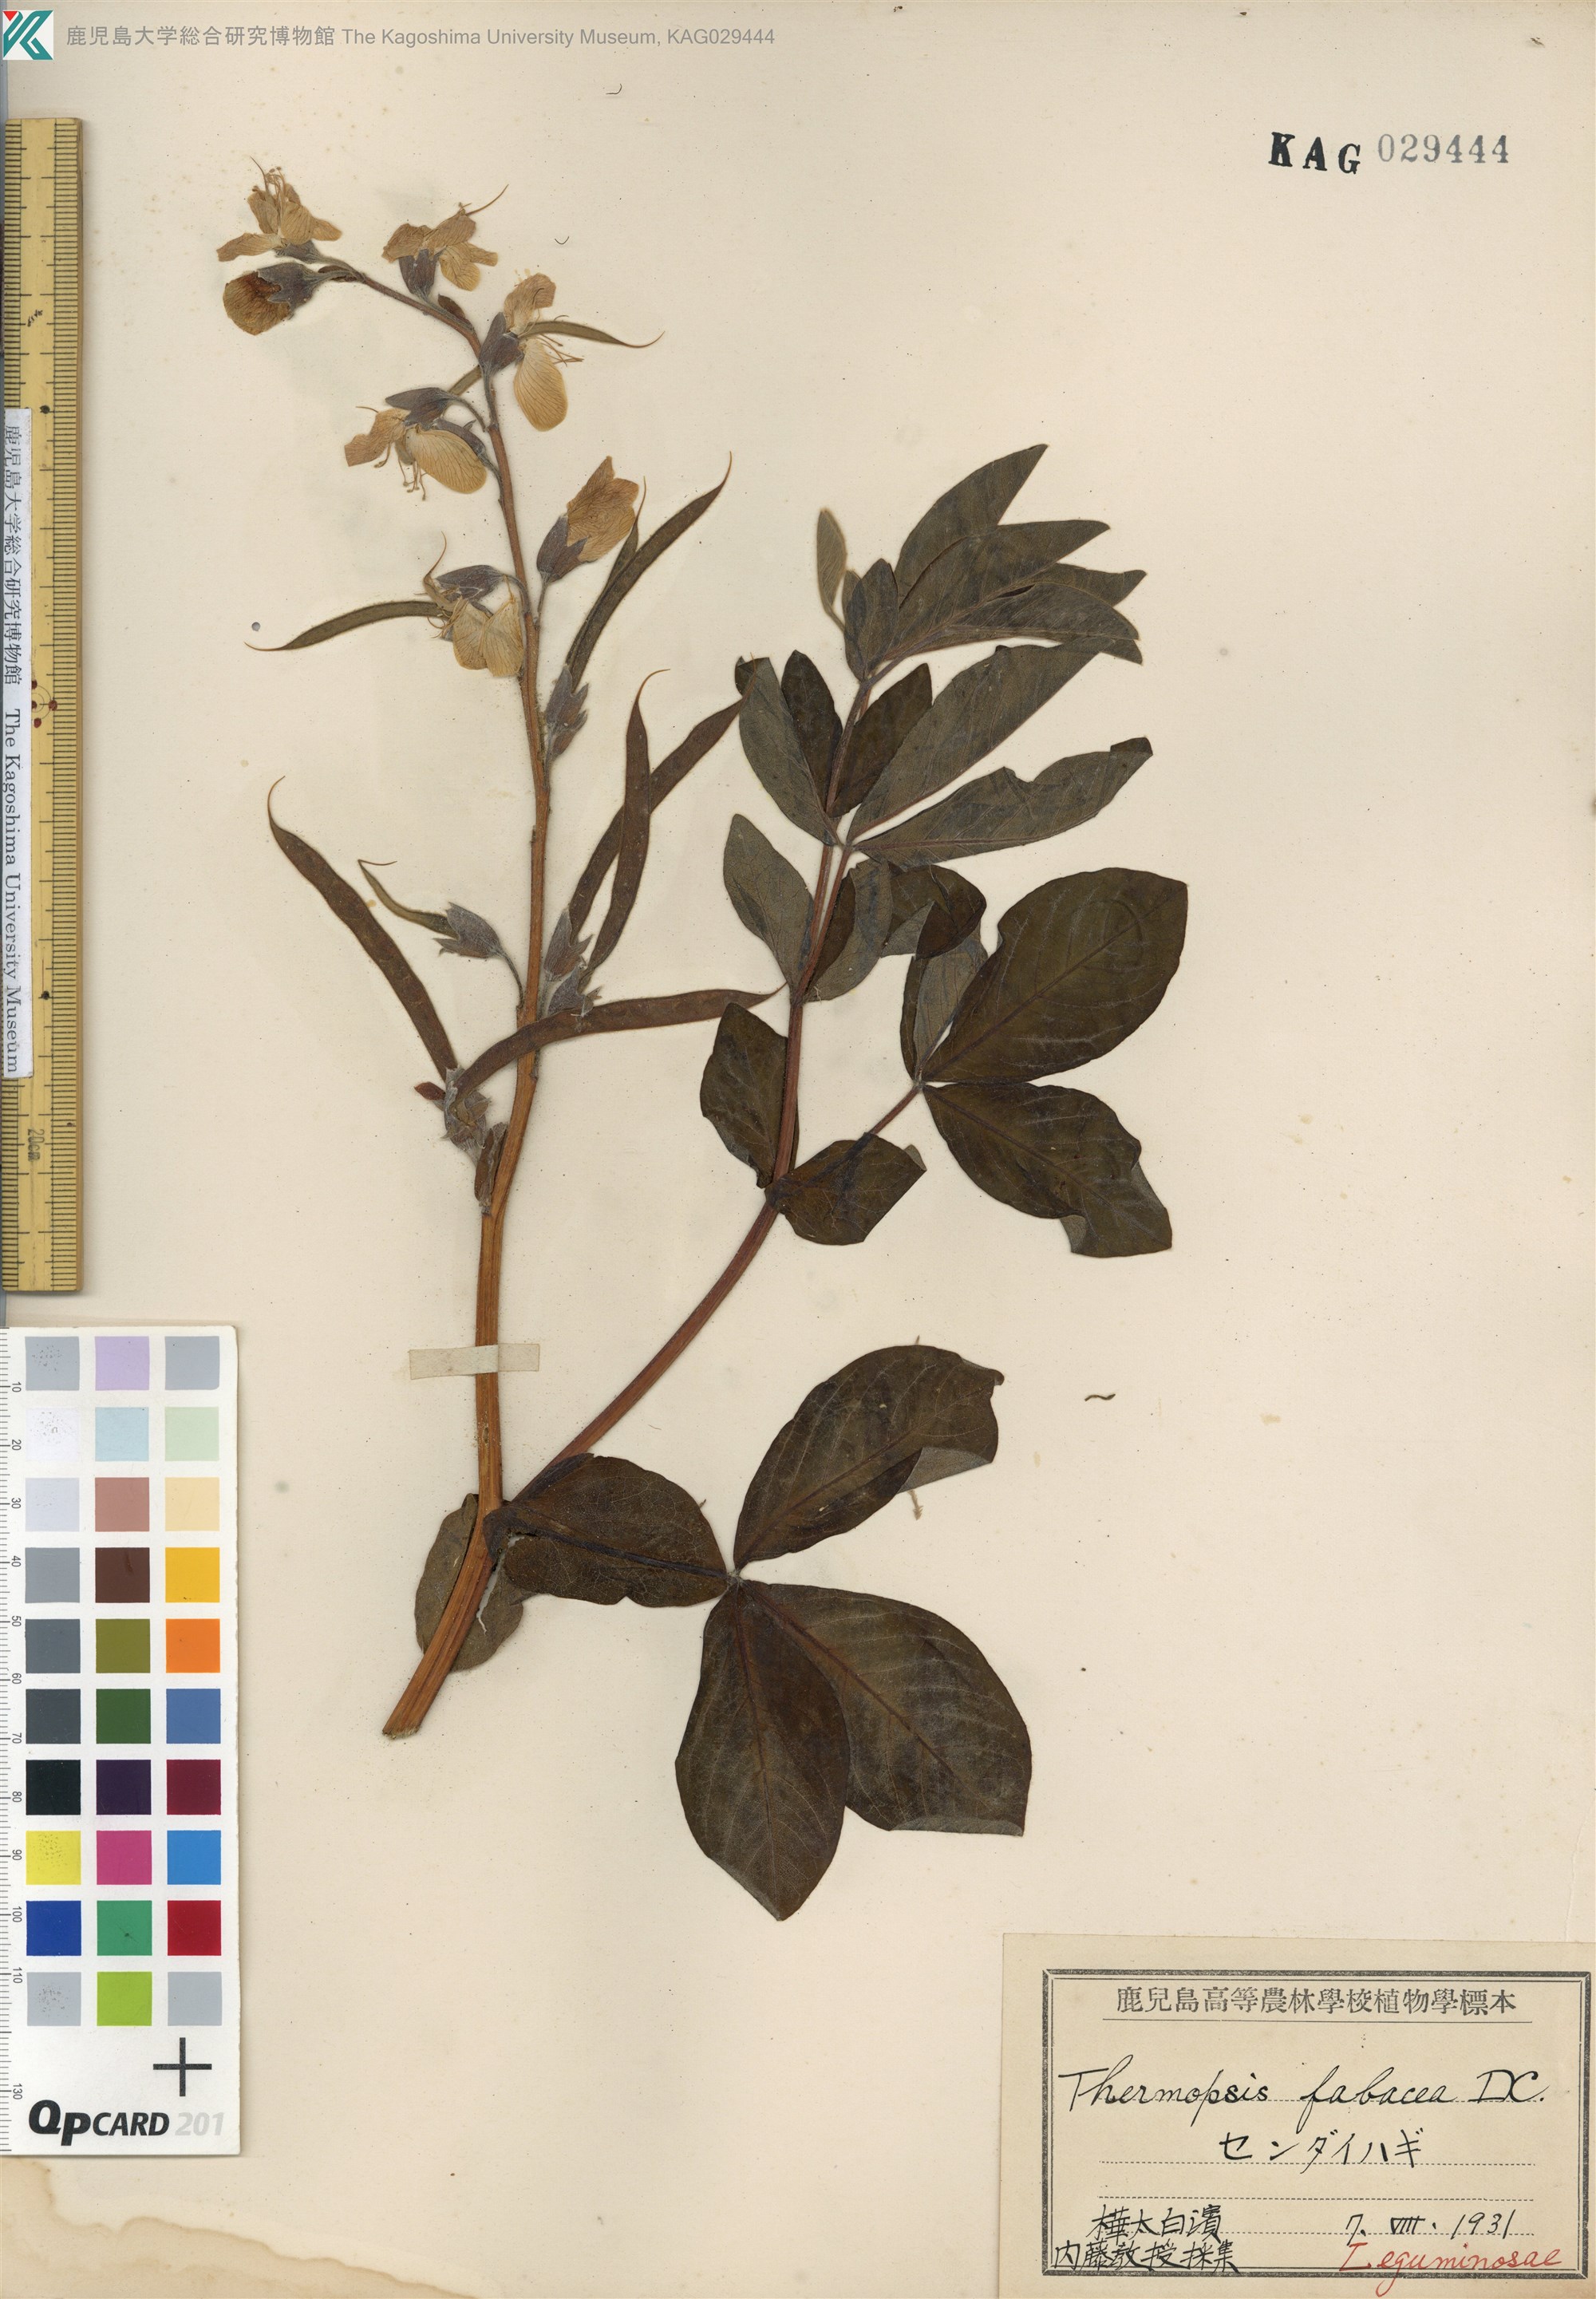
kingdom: Plantae
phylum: Tracheophyta
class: Magnoliopsida
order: Fabales
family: Fabaceae
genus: Thermopsis
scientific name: Thermopsis lanceolata
